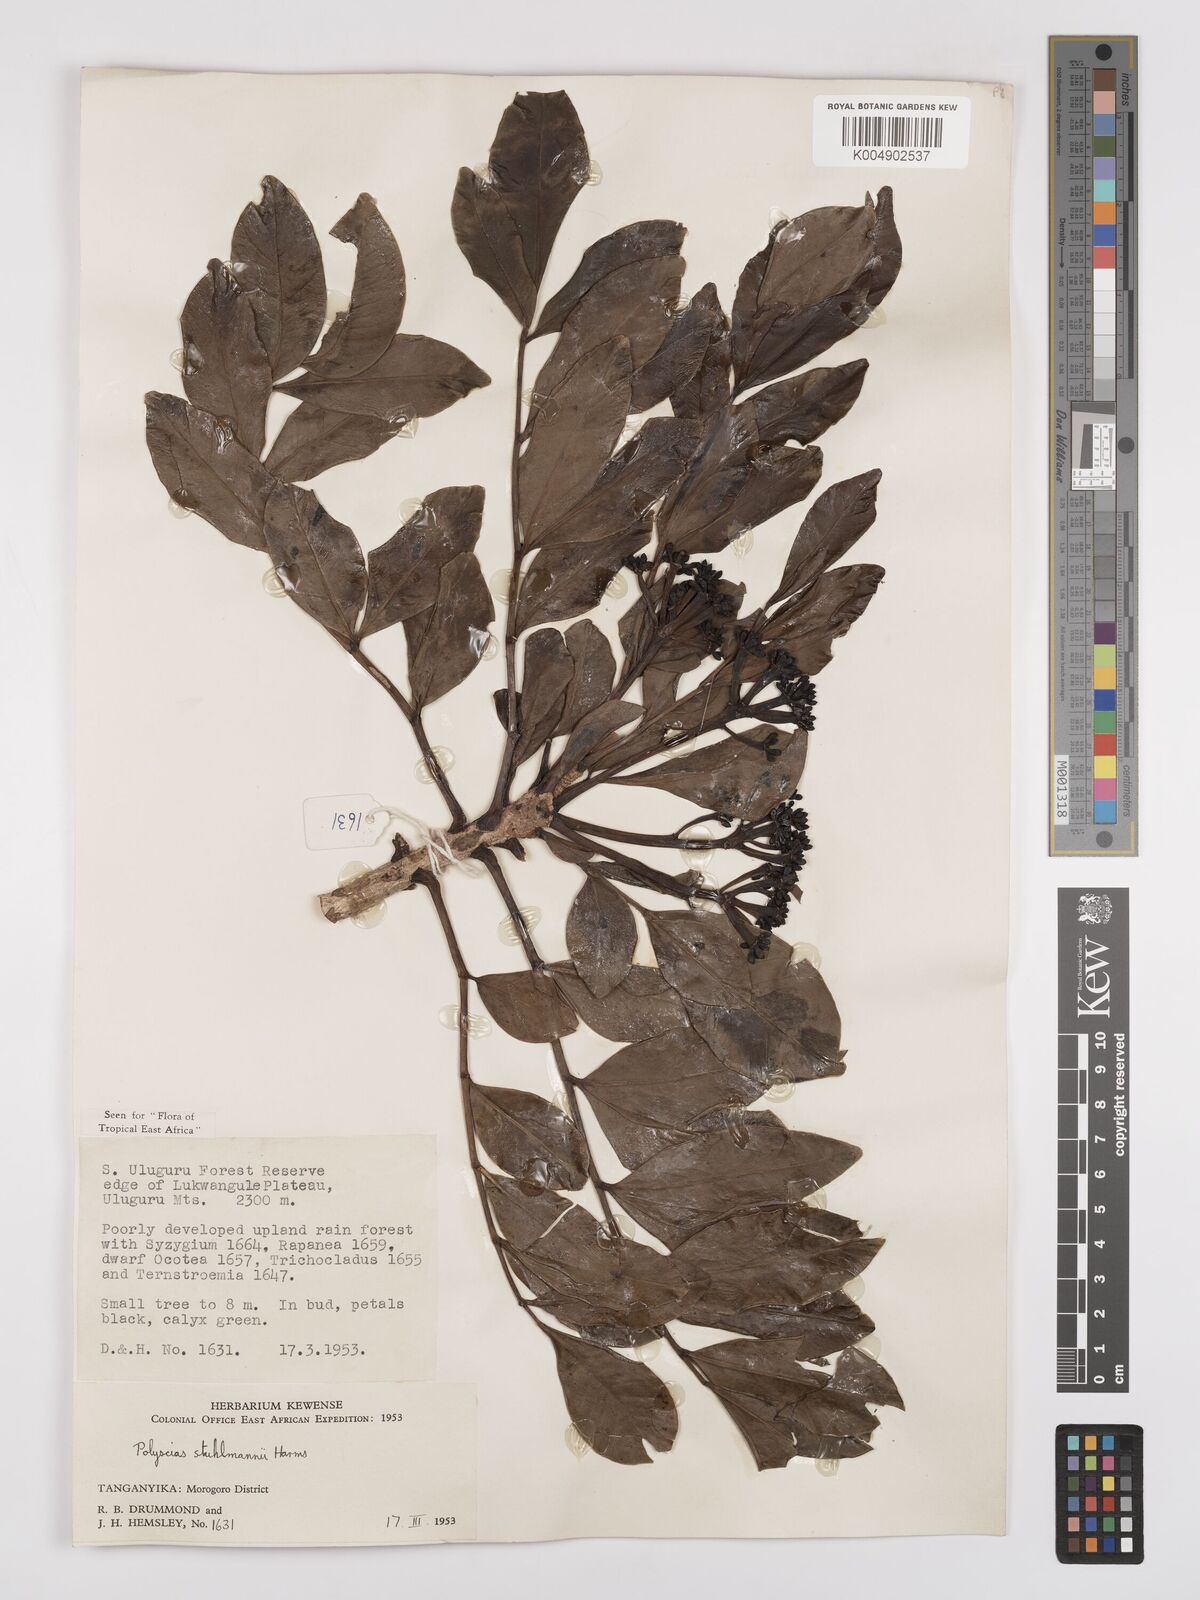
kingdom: Plantae
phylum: Tracheophyta
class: Magnoliopsida
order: Apiales
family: Araliaceae
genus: Polyscias
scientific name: Polyscias stuhlmannii
